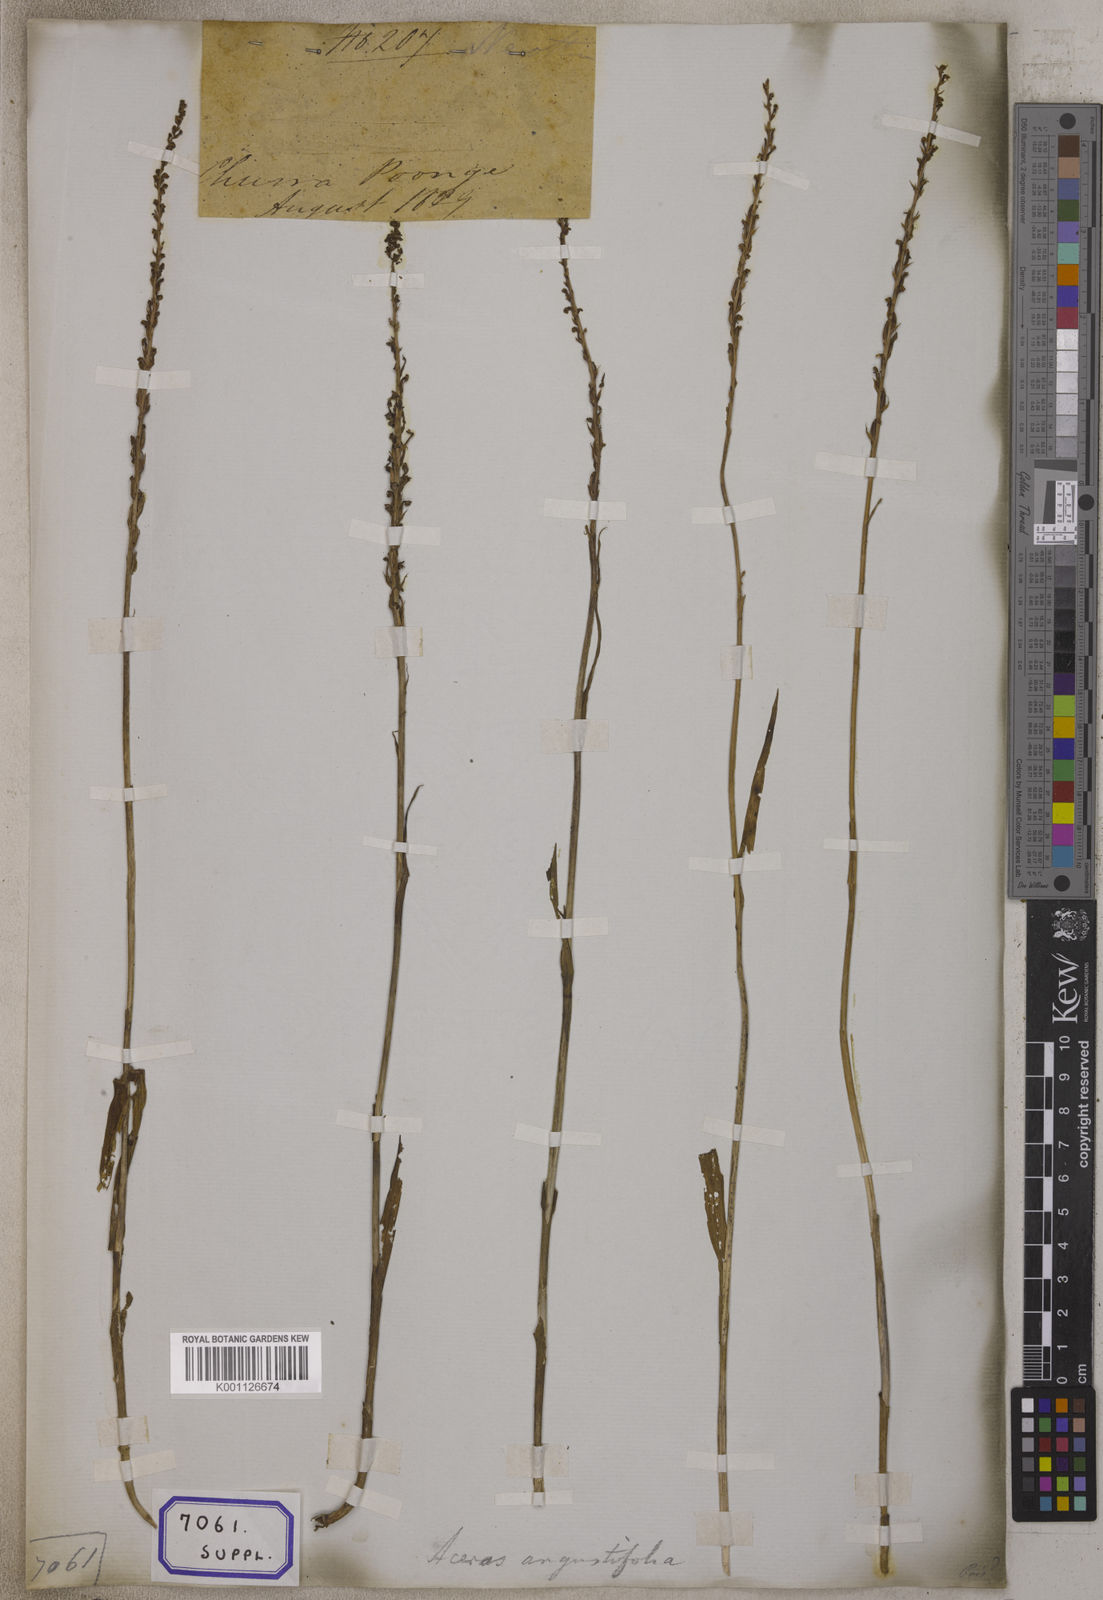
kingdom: Plantae
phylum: Tracheophyta
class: Liliopsida
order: Asparagales
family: Orchidaceae
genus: Herminium
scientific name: Herminium lanceum
